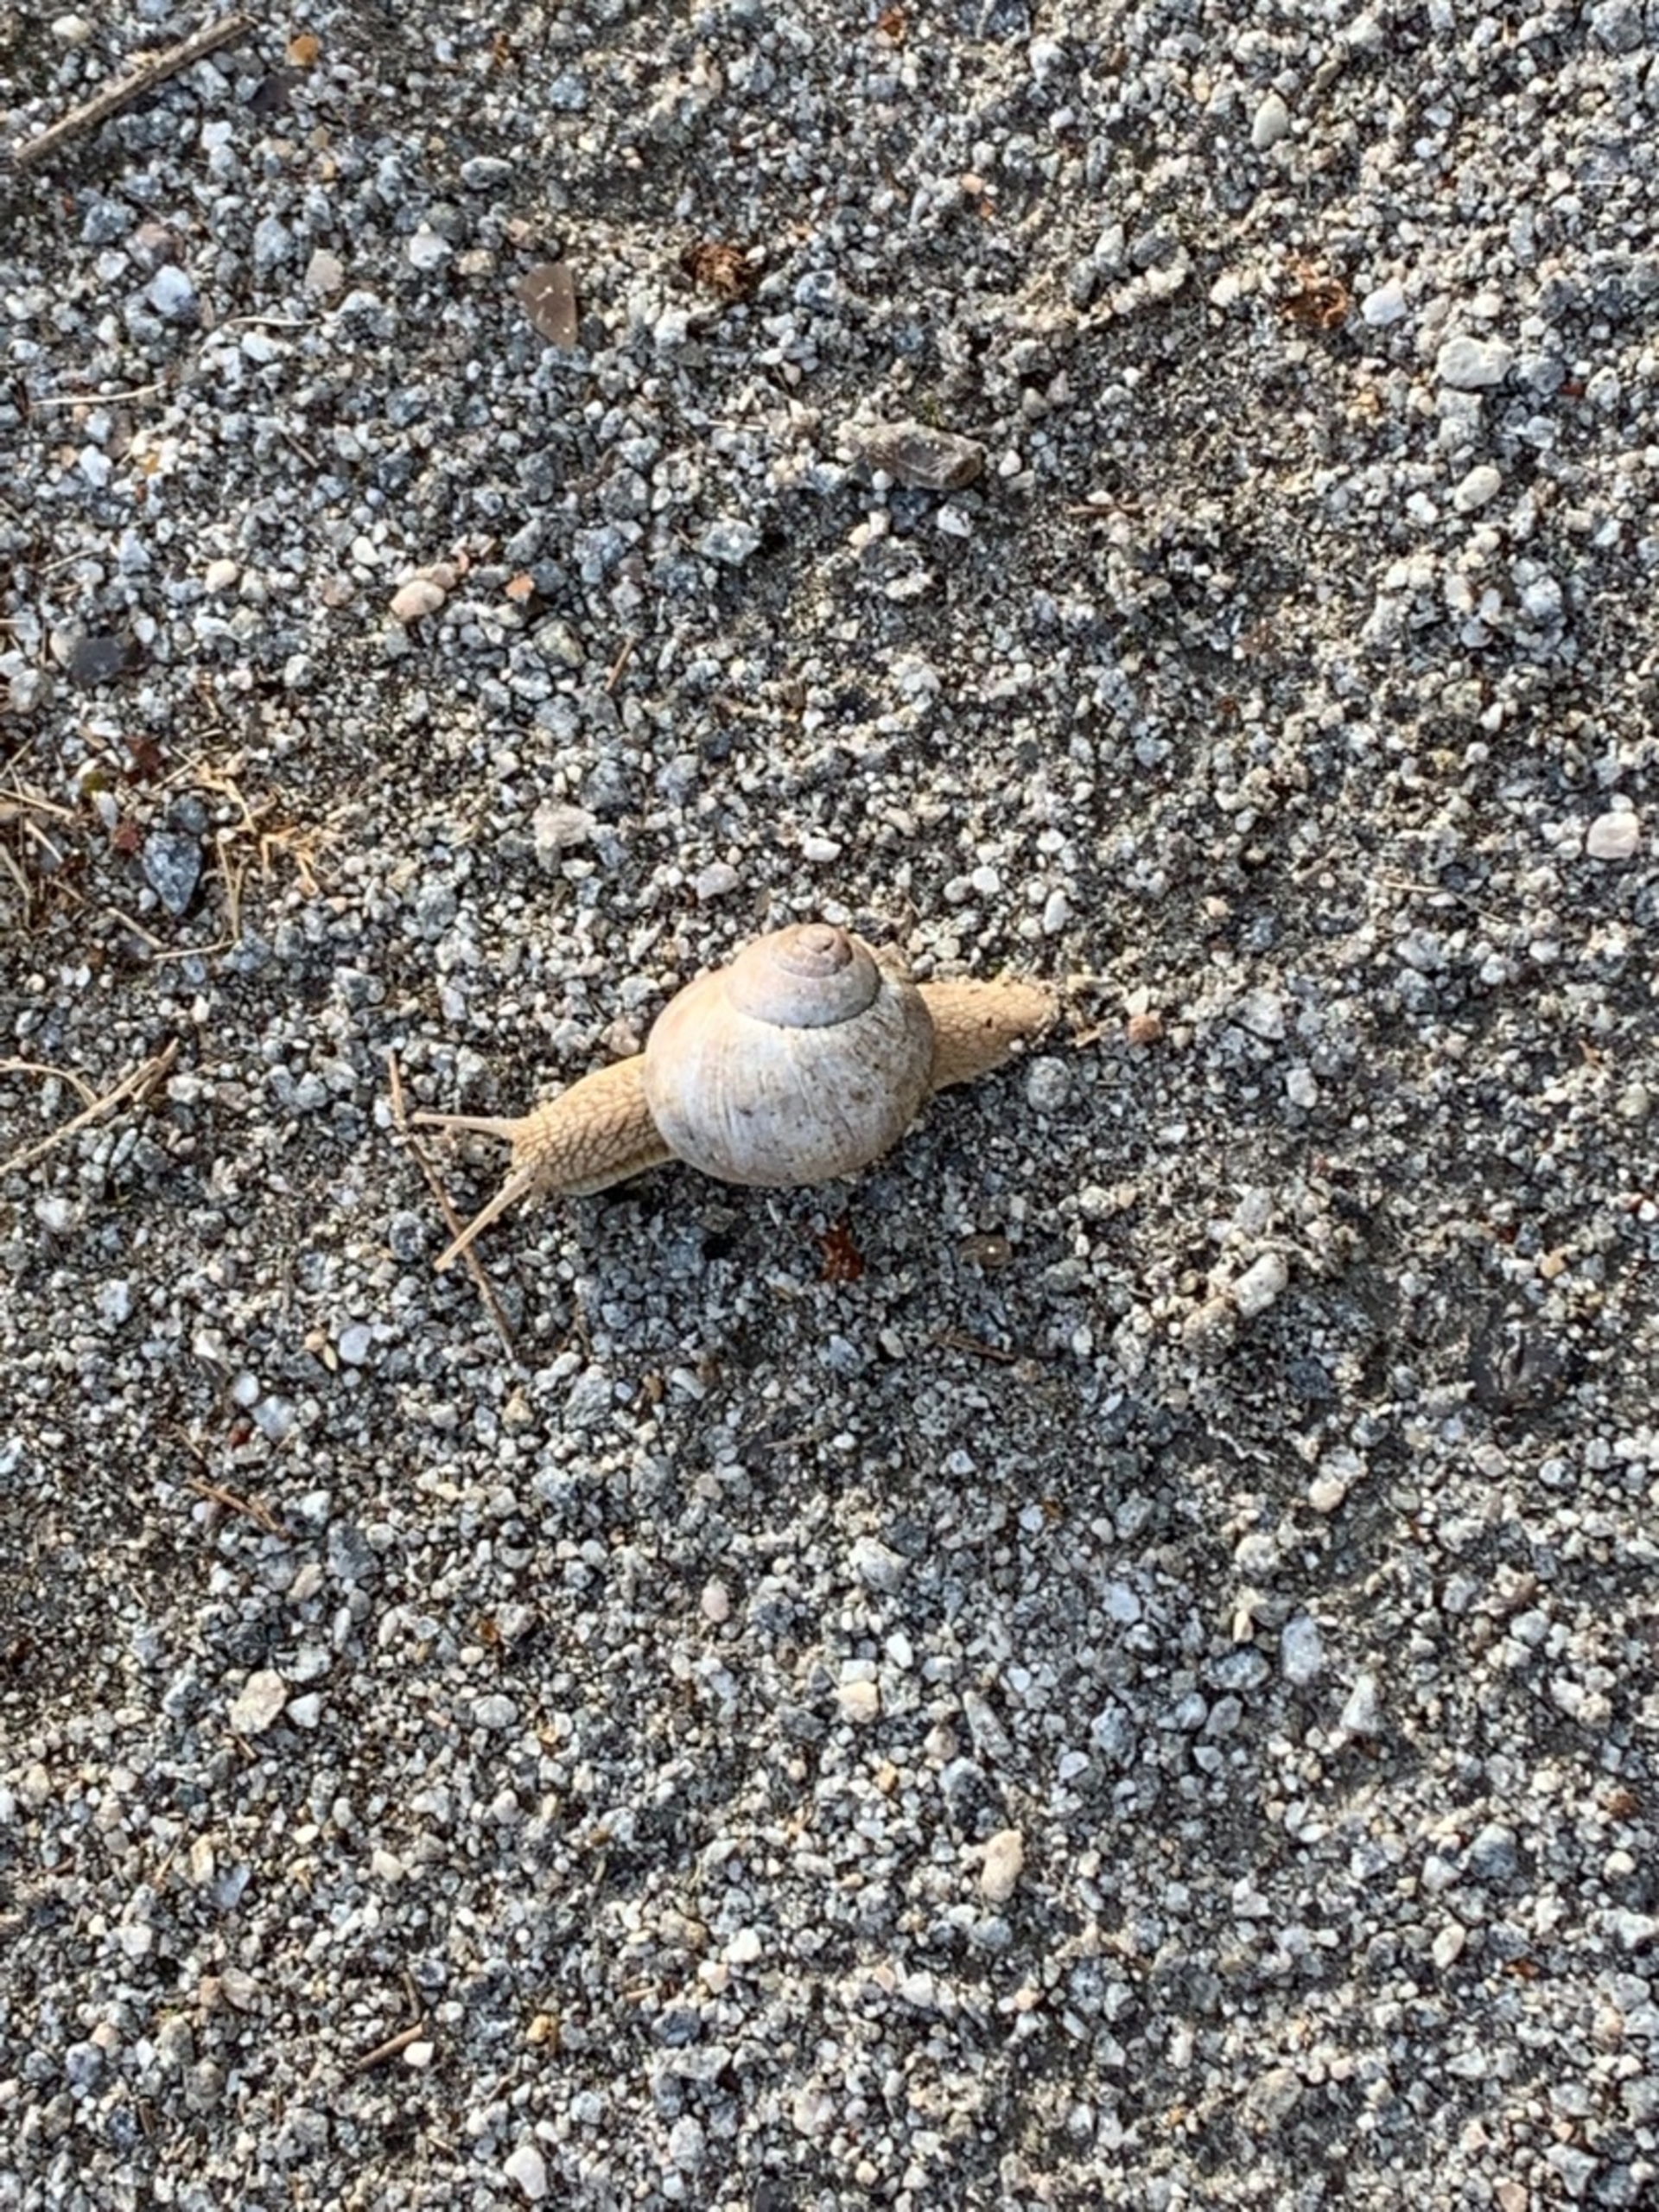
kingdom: Animalia
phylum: Mollusca
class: Gastropoda
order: Stylommatophora
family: Helicidae
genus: Helix
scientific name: Helix pomatia
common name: Vinbjergsnegl
